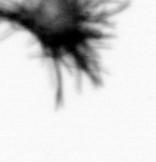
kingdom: Bacteria
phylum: Cyanobacteria
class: Cyanobacteriia
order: Cyanobacteriales
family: Microcoleaceae
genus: Trichodesmium
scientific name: Trichodesmium
